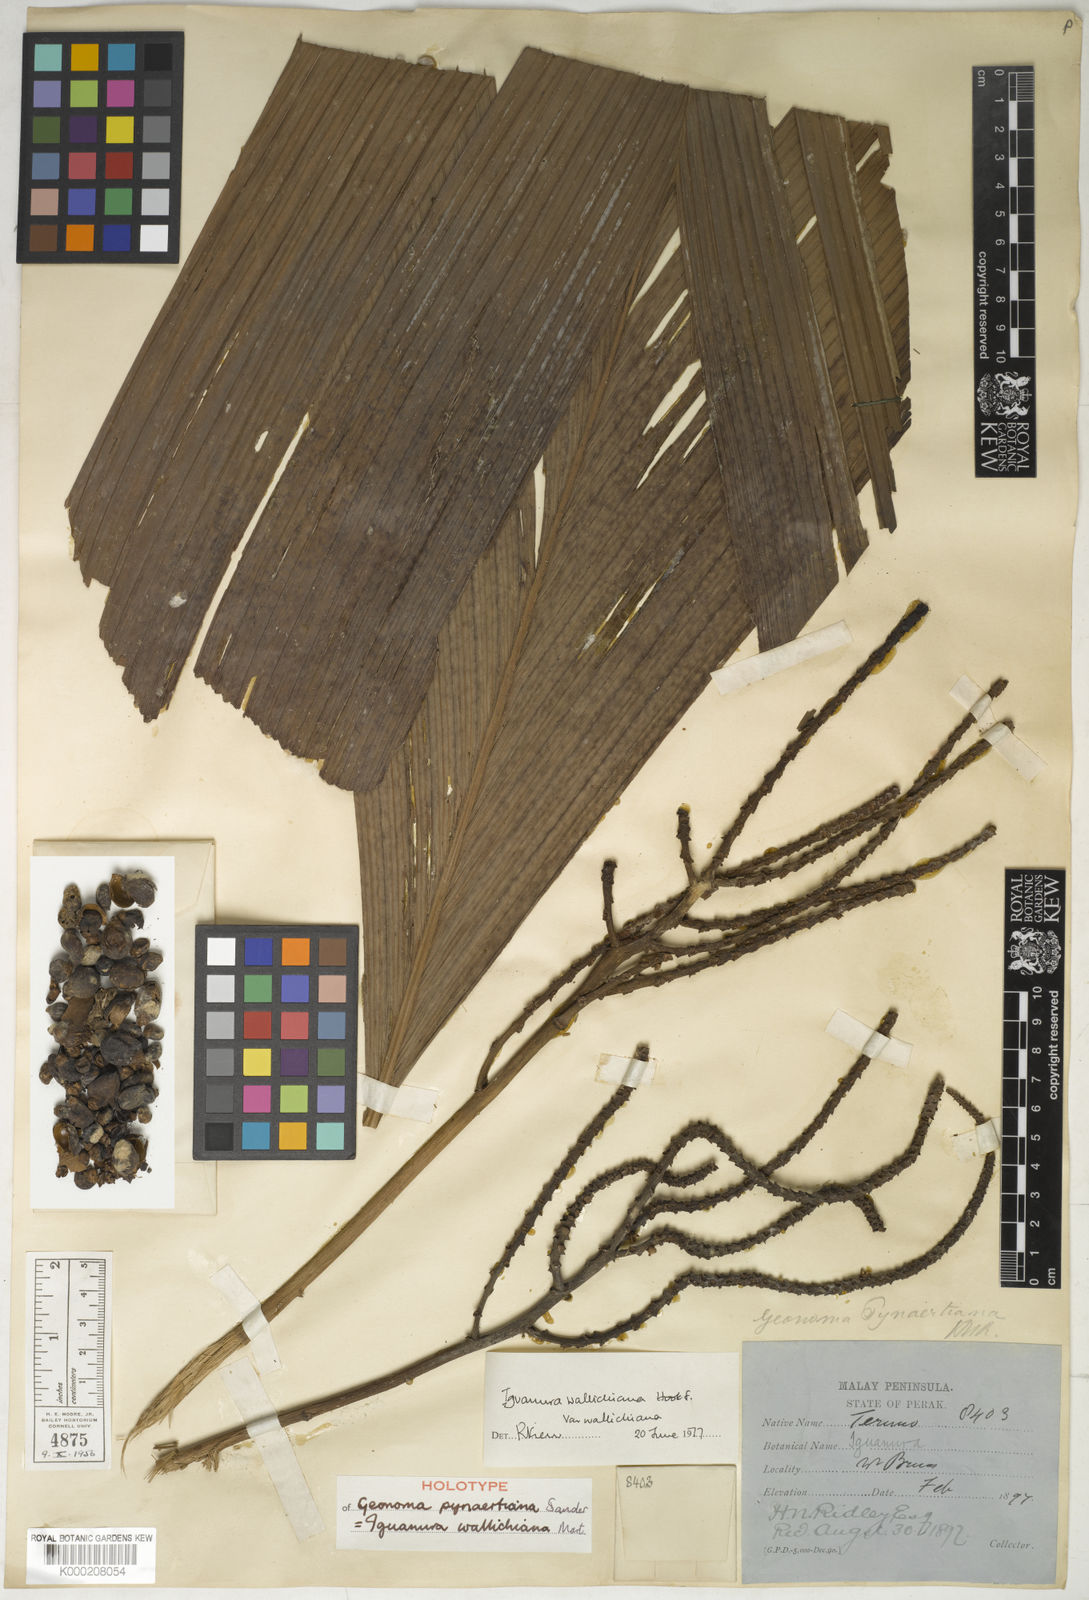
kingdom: Plantae
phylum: Tracheophyta
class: Liliopsida
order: Arecales
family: Arecaceae
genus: Iguanura
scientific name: Iguanura wallichiana
